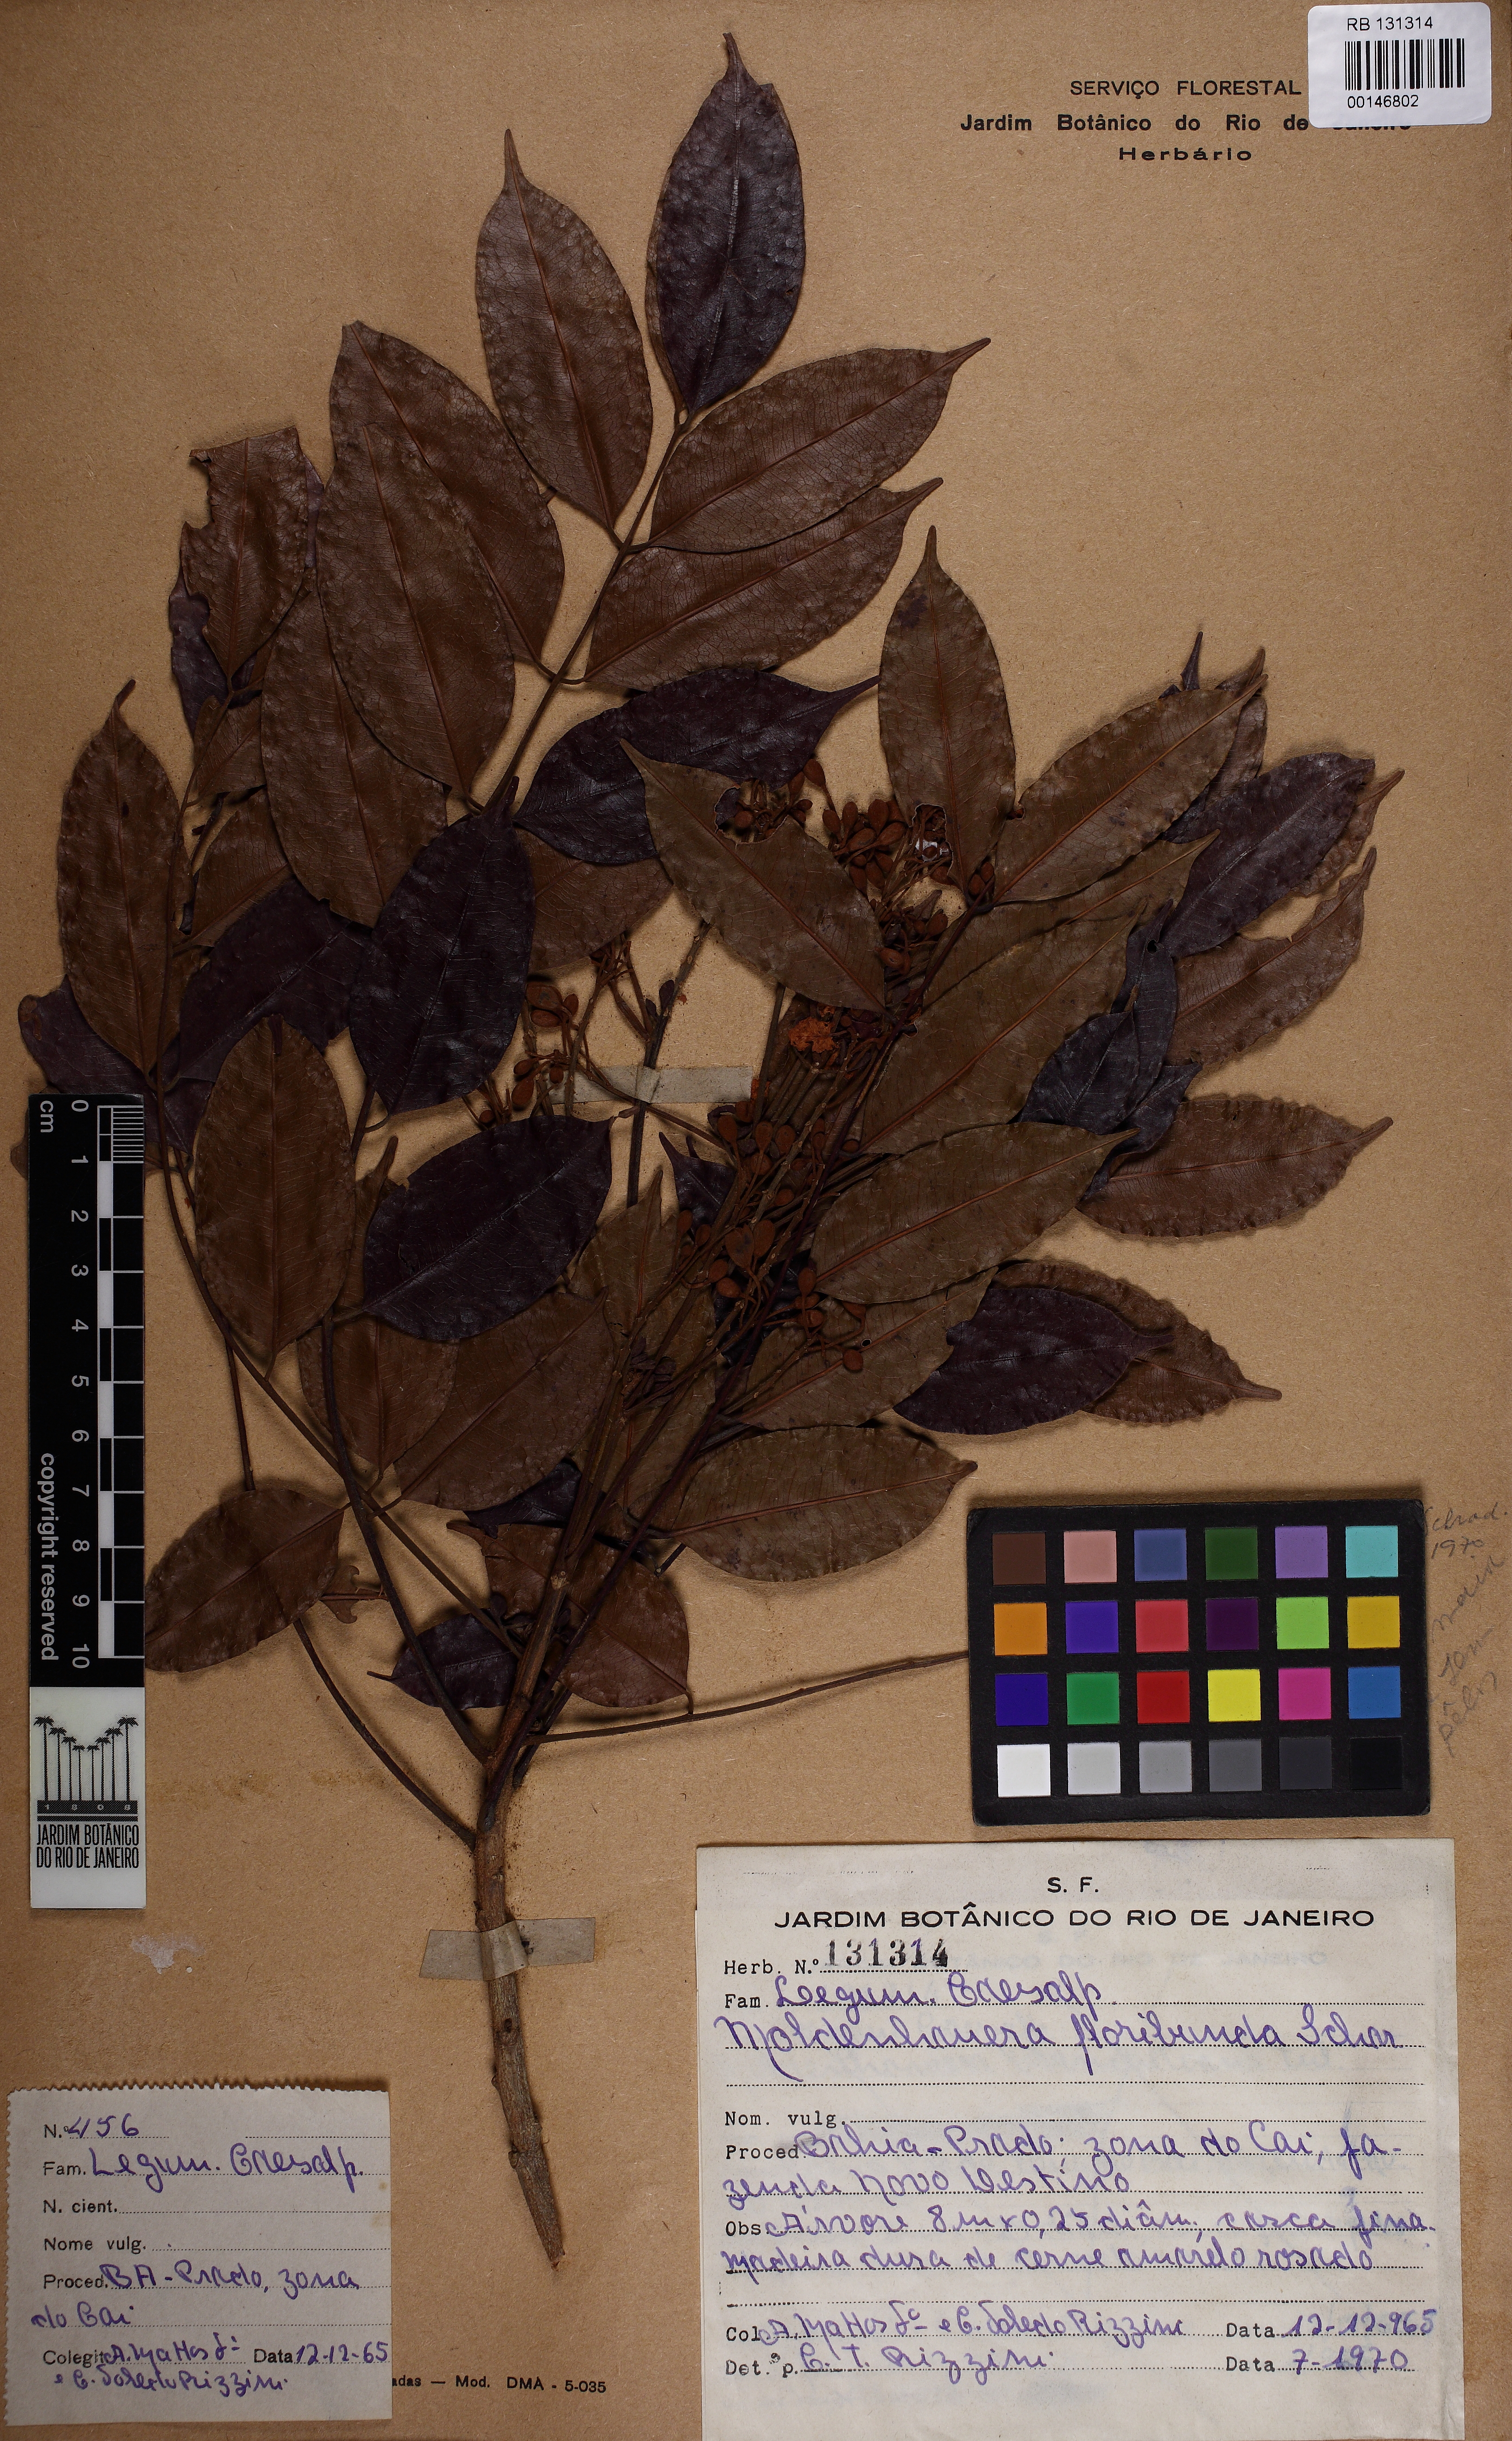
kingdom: Plantae
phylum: Tracheophyta
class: Magnoliopsida
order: Fabales
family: Fabaceae
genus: Moldenhawera
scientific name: Moldenhawera floribunda
